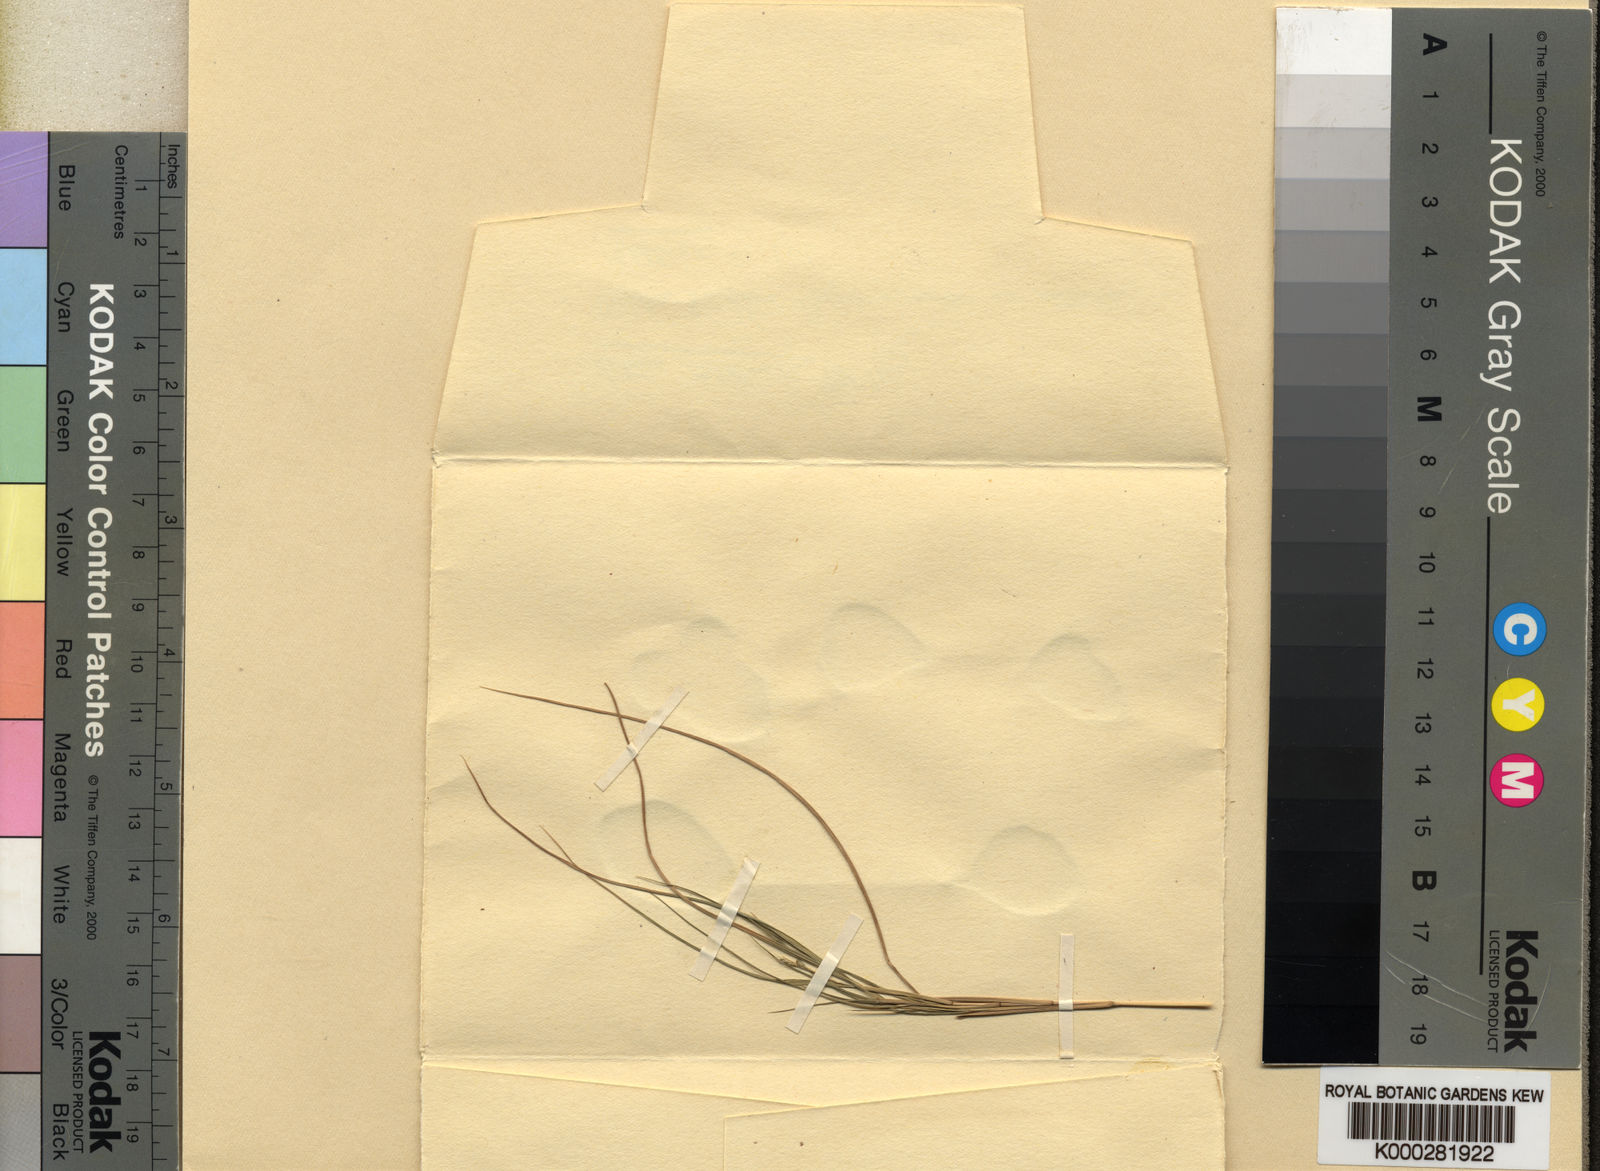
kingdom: Plantae
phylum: Tracheophyta
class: Liliopsida
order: Poales
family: Poaceae
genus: Setaria
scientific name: Setaria
